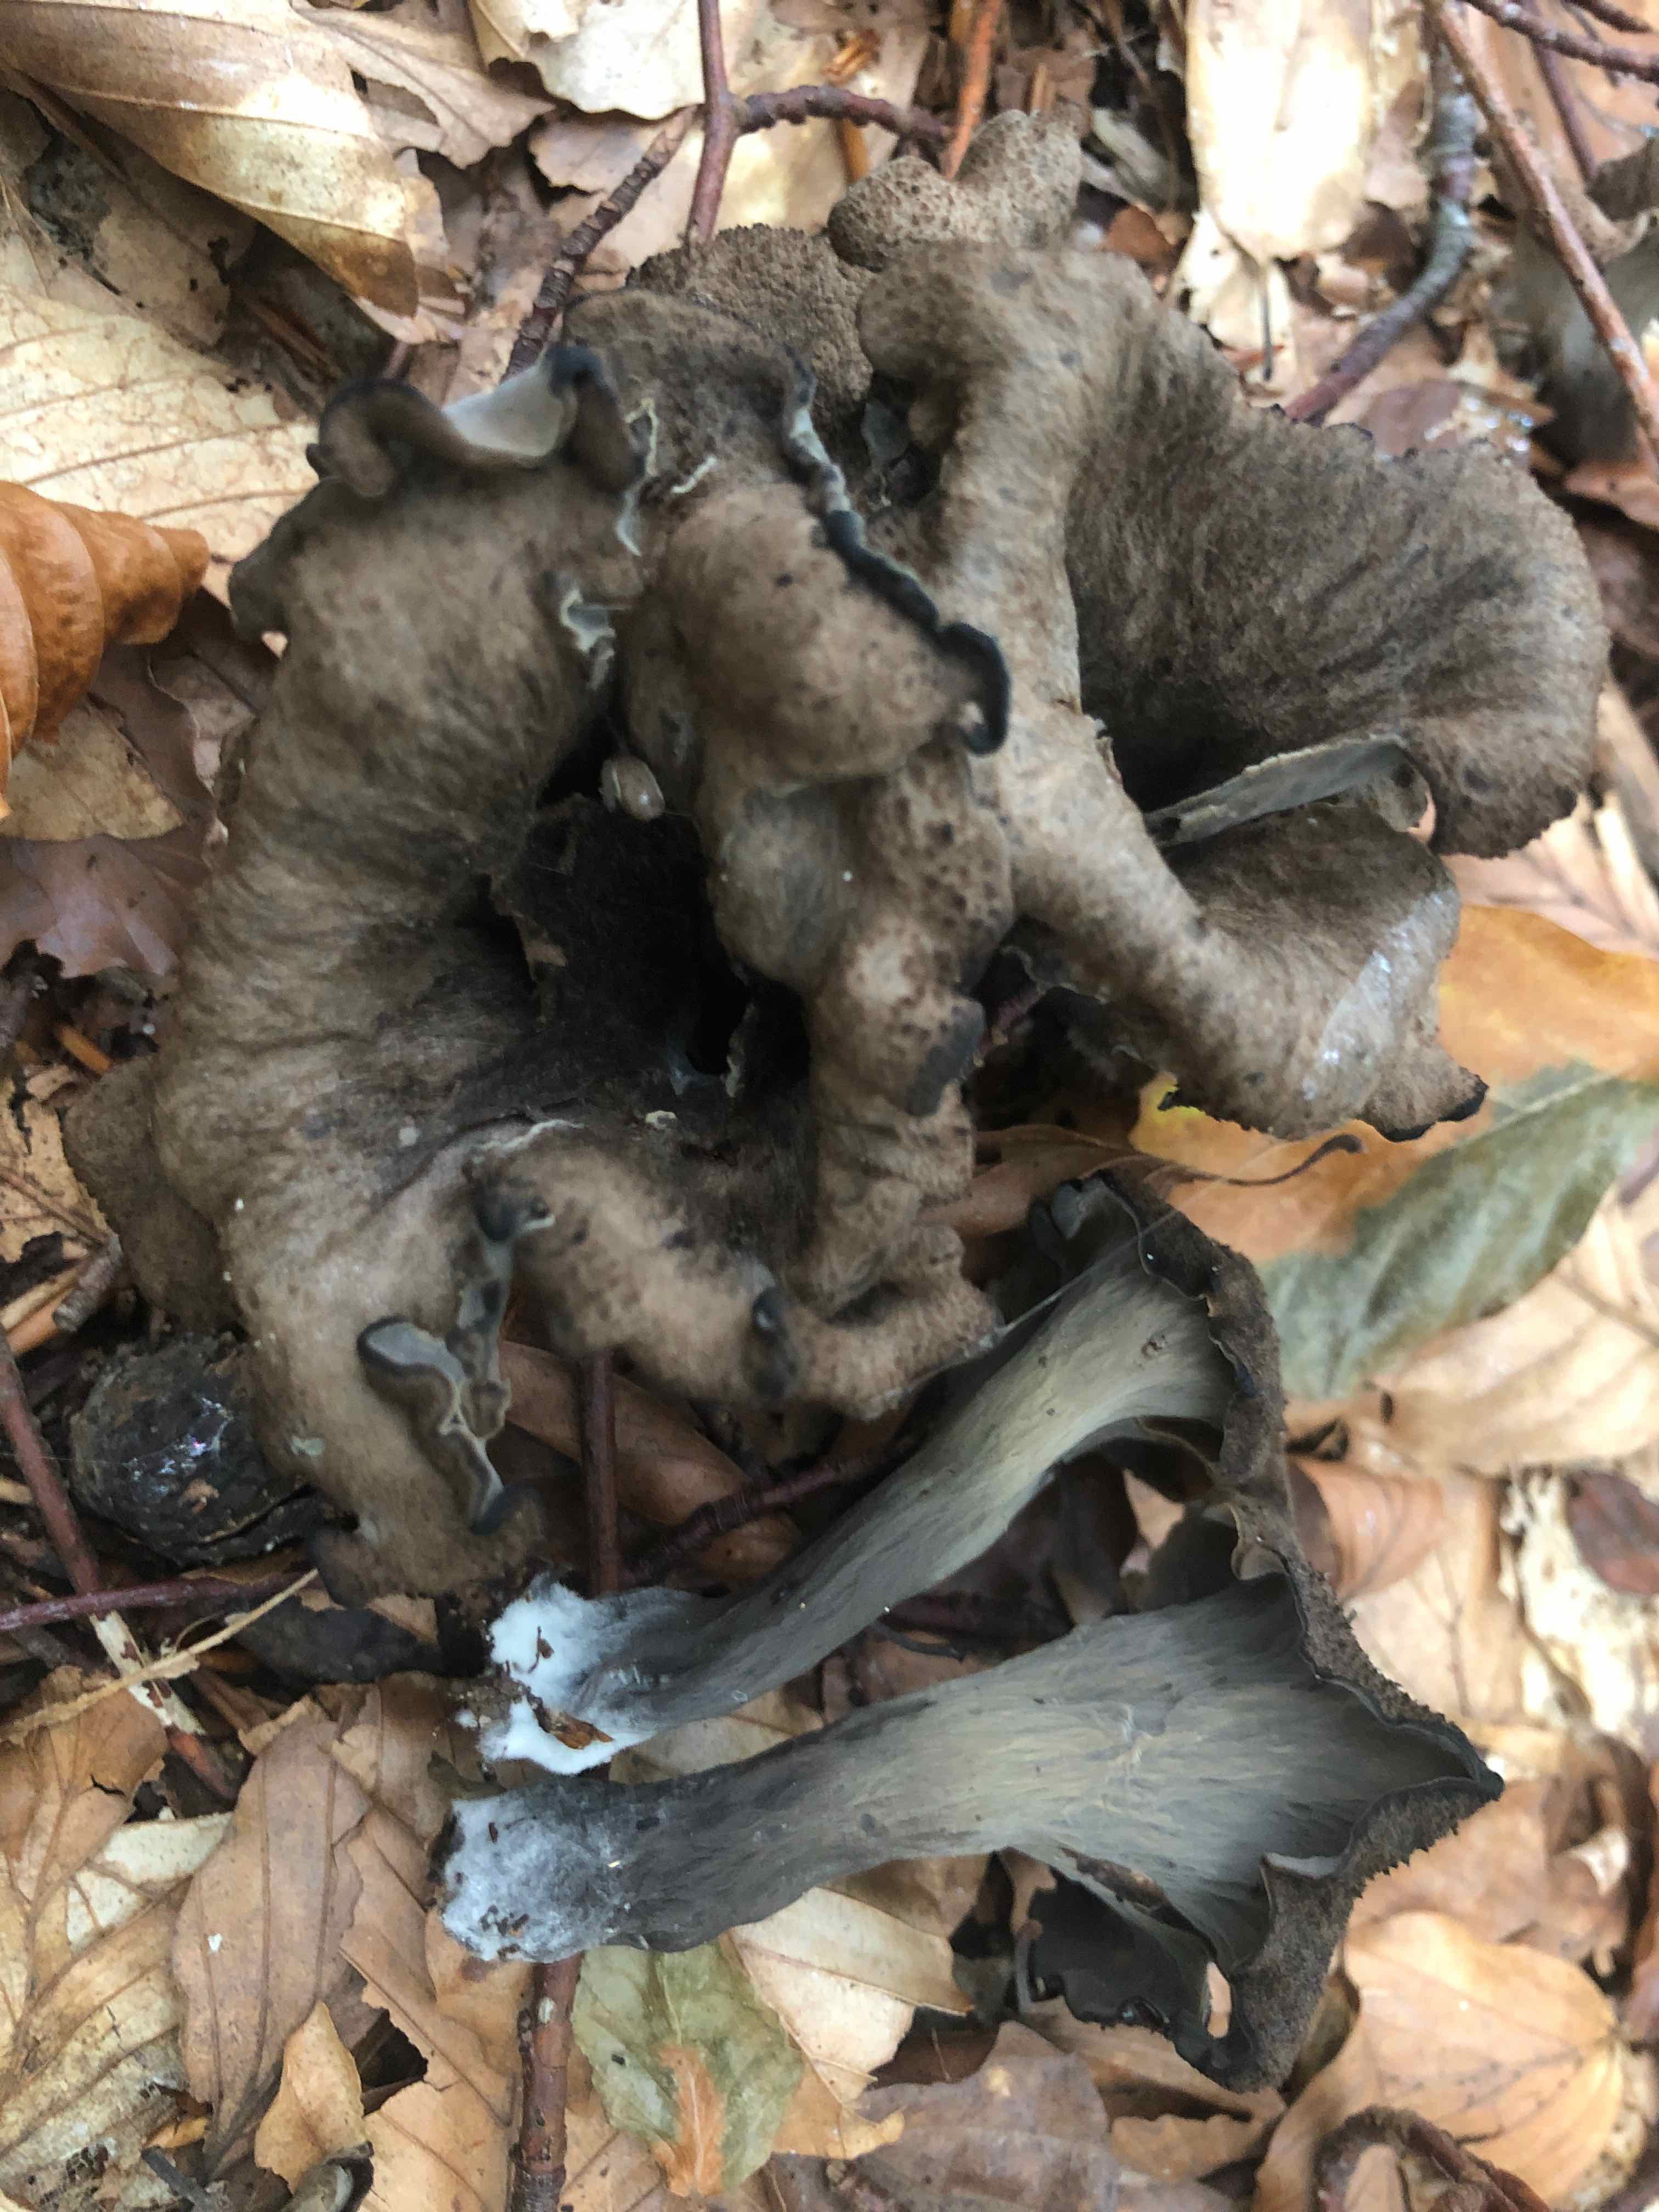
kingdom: Fungi
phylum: Basidiomycota
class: Agaricomycetes
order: Cantharellales
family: Hydnaceae
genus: Craterellus
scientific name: Craterellus cornucopioides
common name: trompetsvamp
